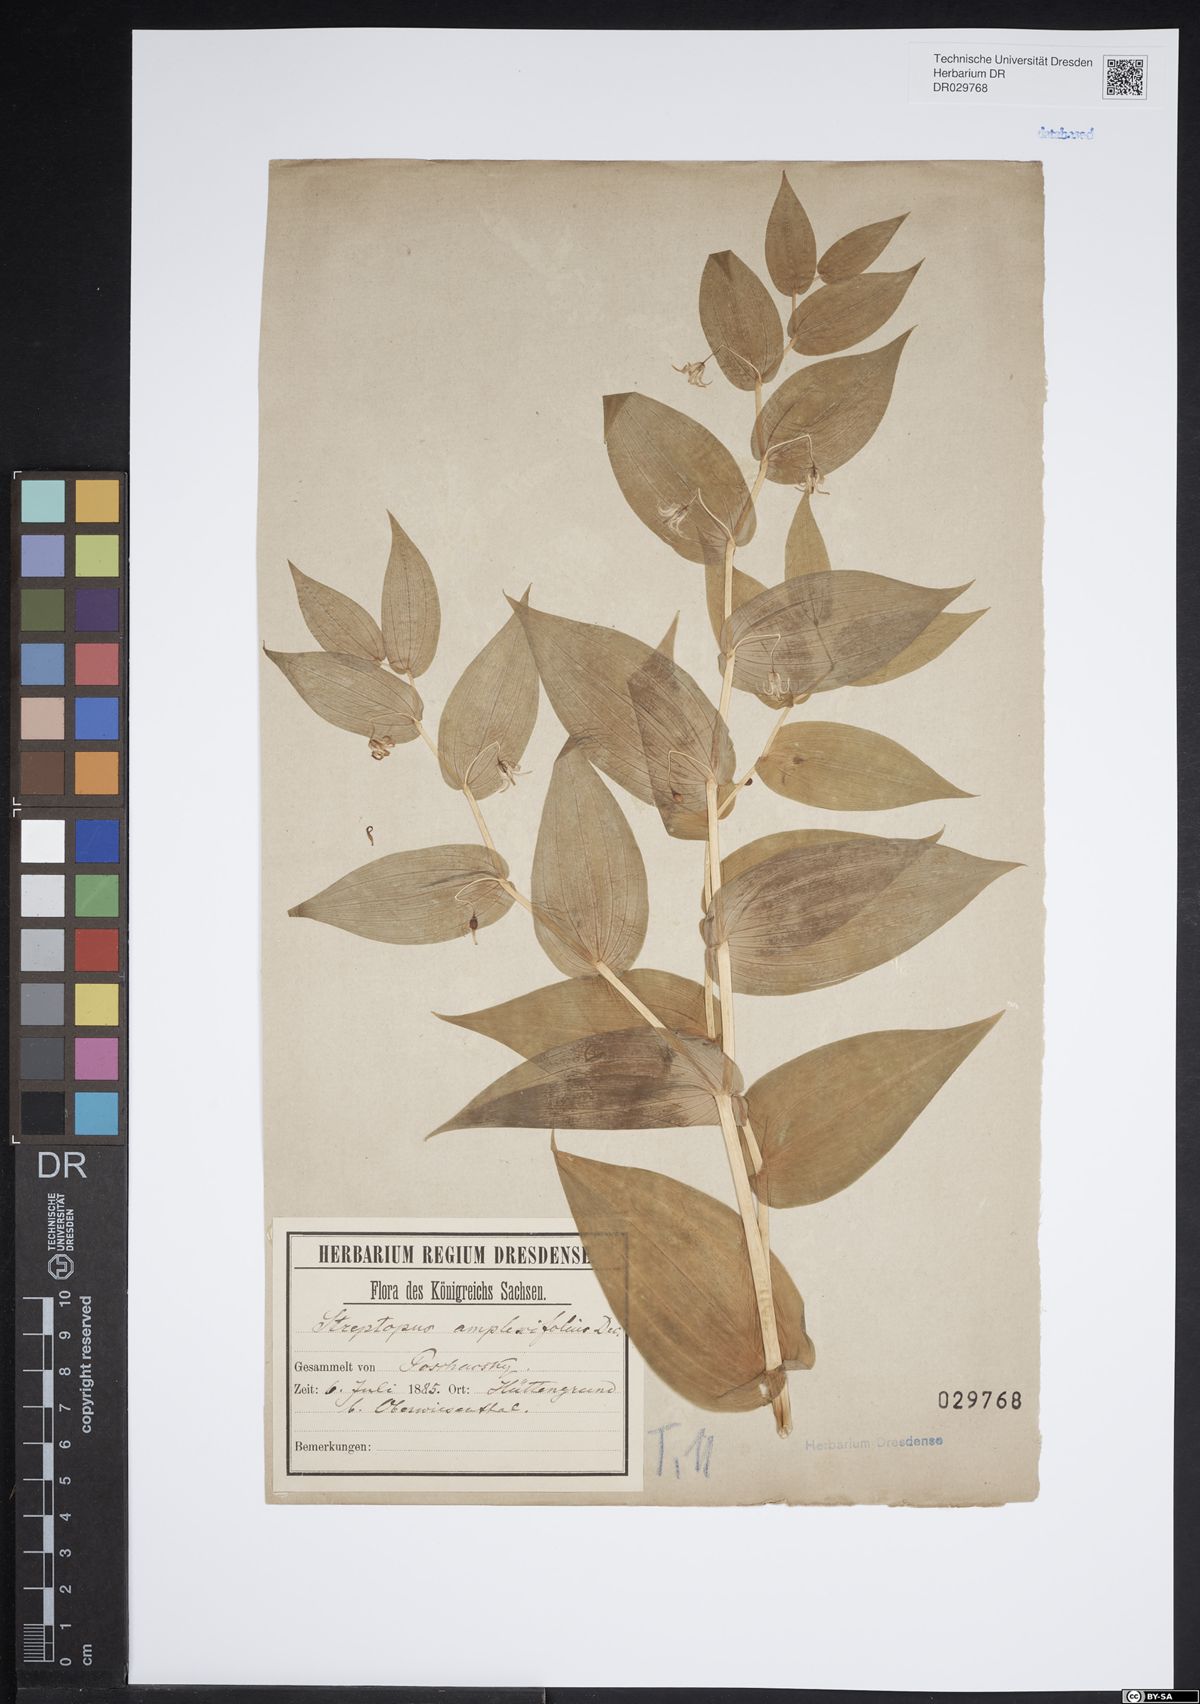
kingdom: Plantae
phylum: Tracheophyta
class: Liliopsida
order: Liliales
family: Liliaceae
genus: Streptopus
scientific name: Streptopus amplexifolius
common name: Clasp twisted stalk
